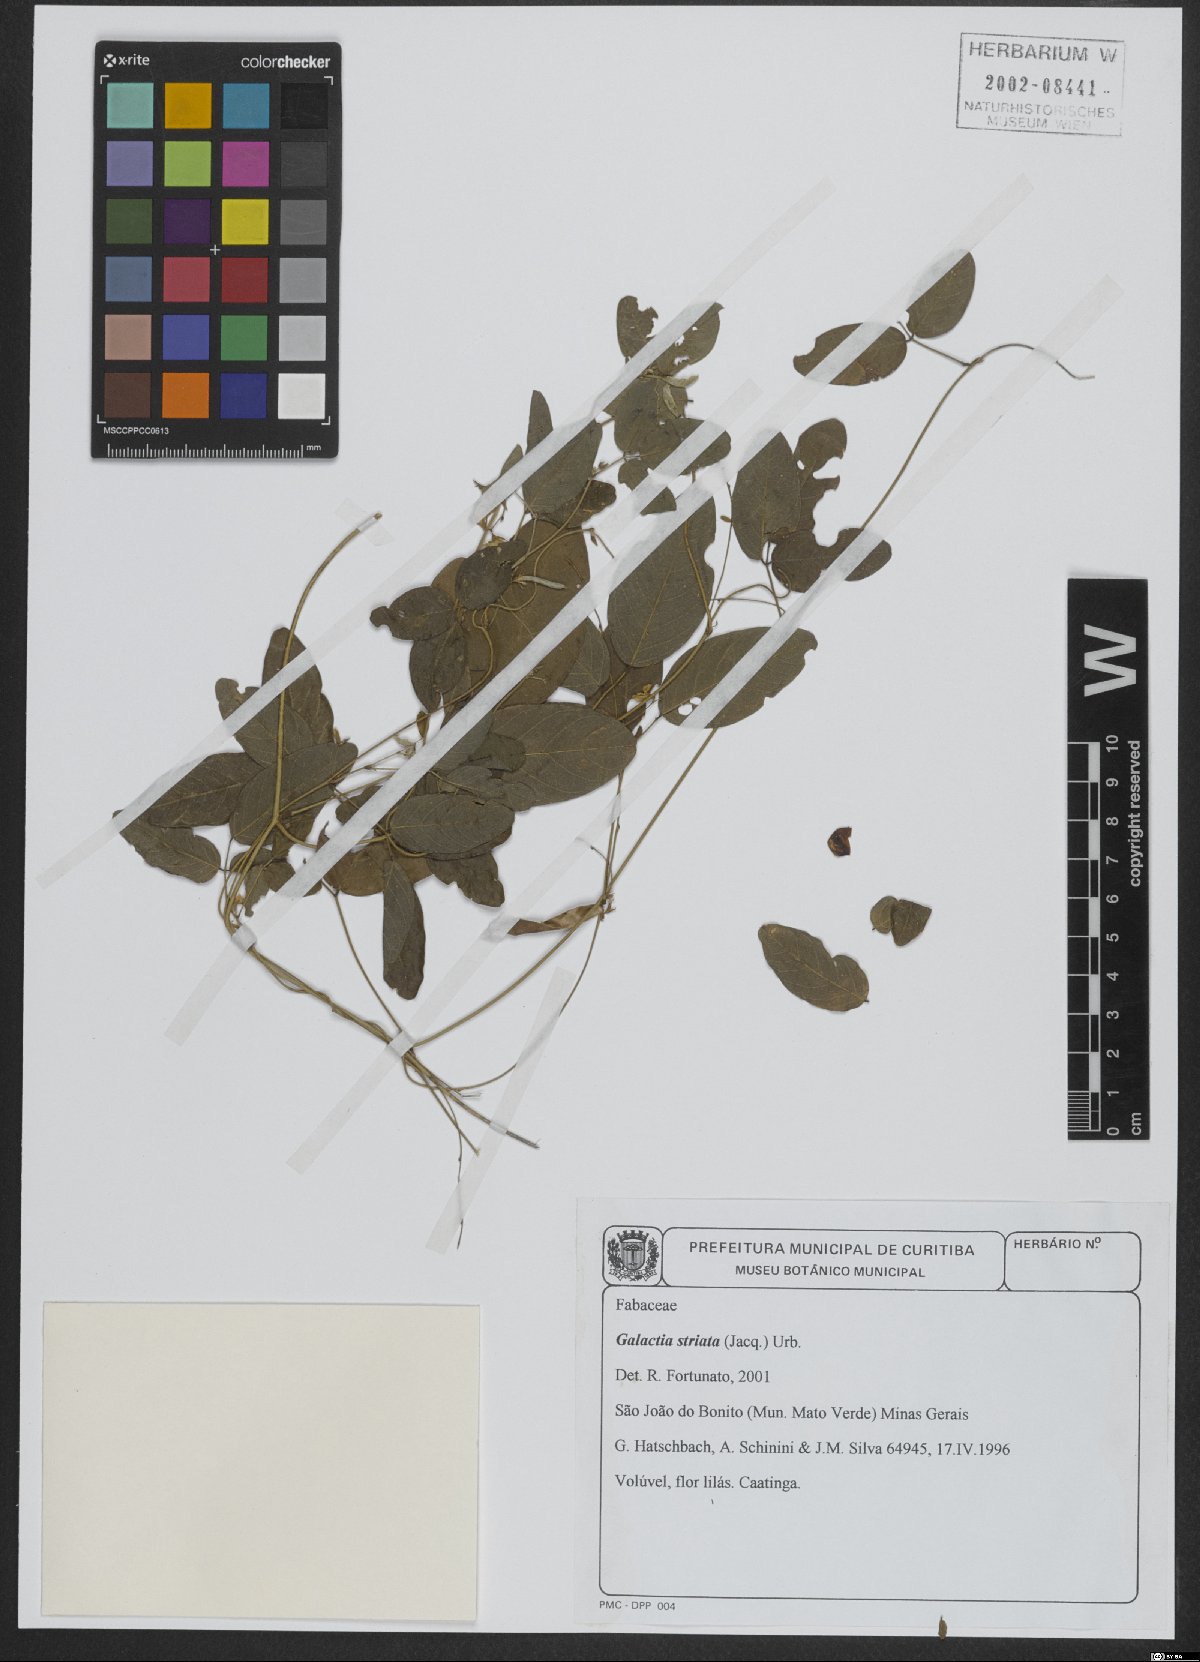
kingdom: Plantae
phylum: Tracheophyta
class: Magnoliopsida
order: Fabales
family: Fabaceae
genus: Galactia
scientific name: Galactia striata
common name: Florida hammock milkpea
